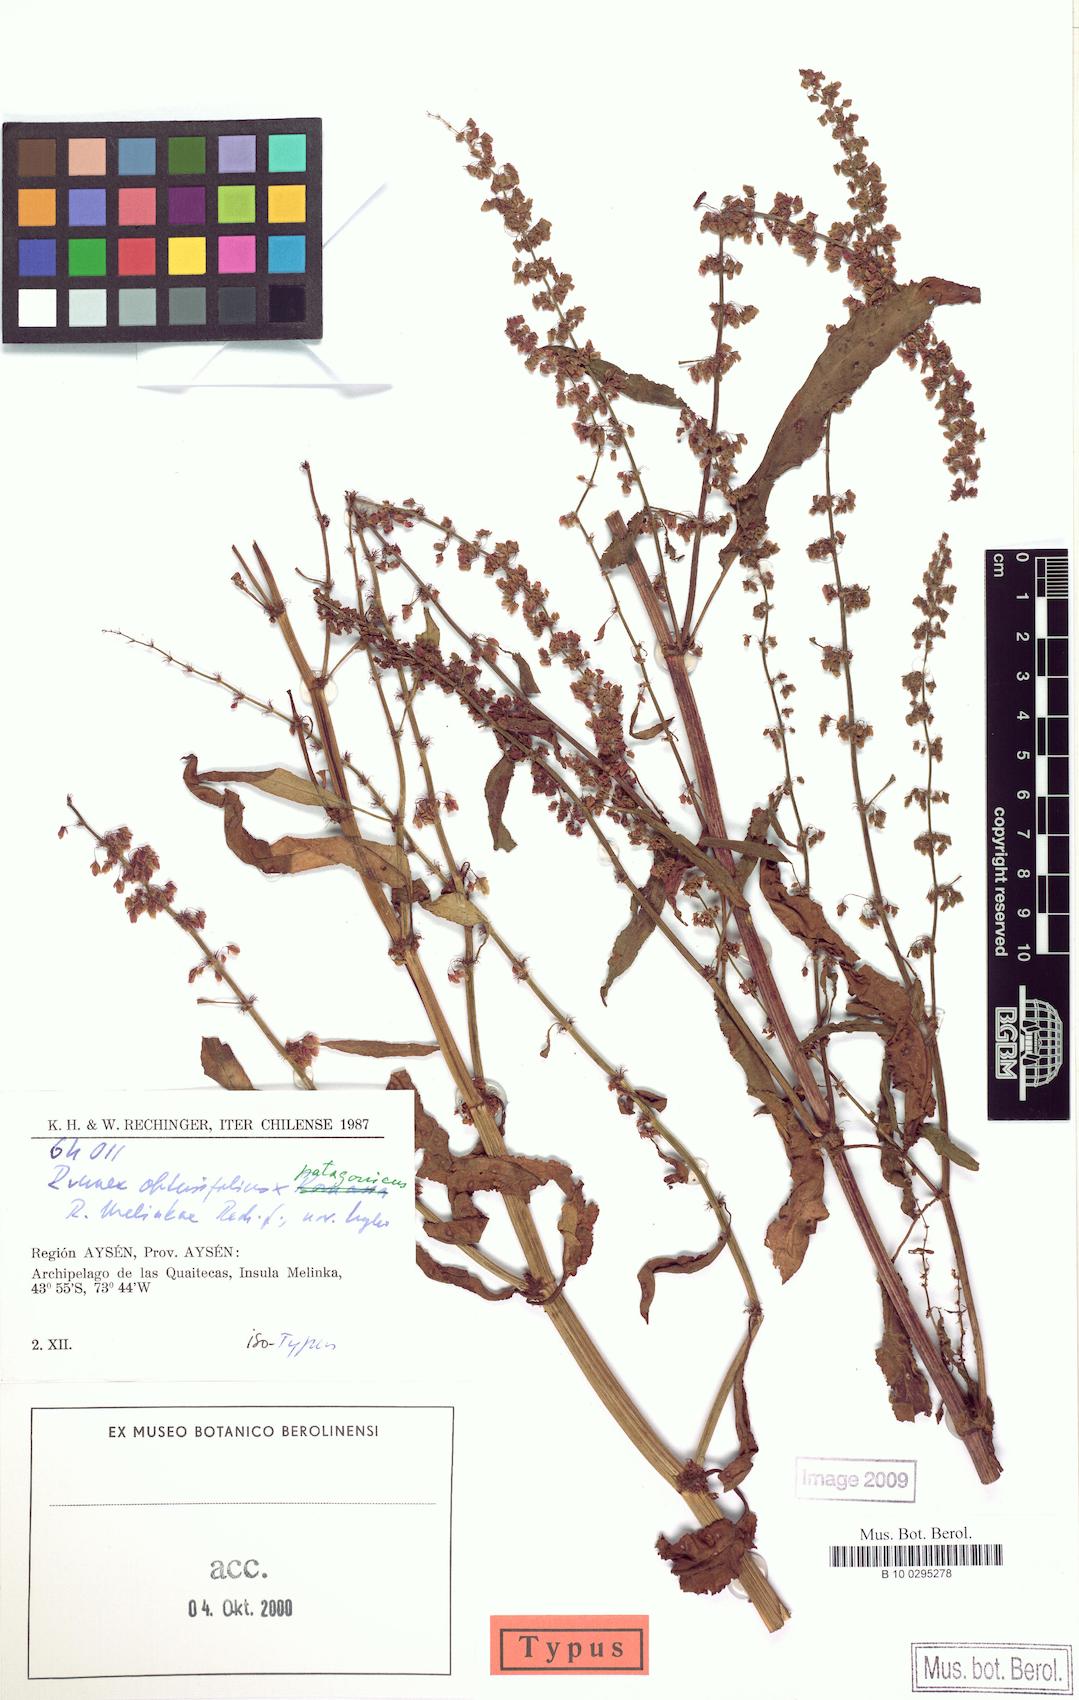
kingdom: Plantae
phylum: Tracheophyta
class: Magnoliopsida
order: Caryophyllales
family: Polygonaceae
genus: Rumex
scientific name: Rumex melinkae
